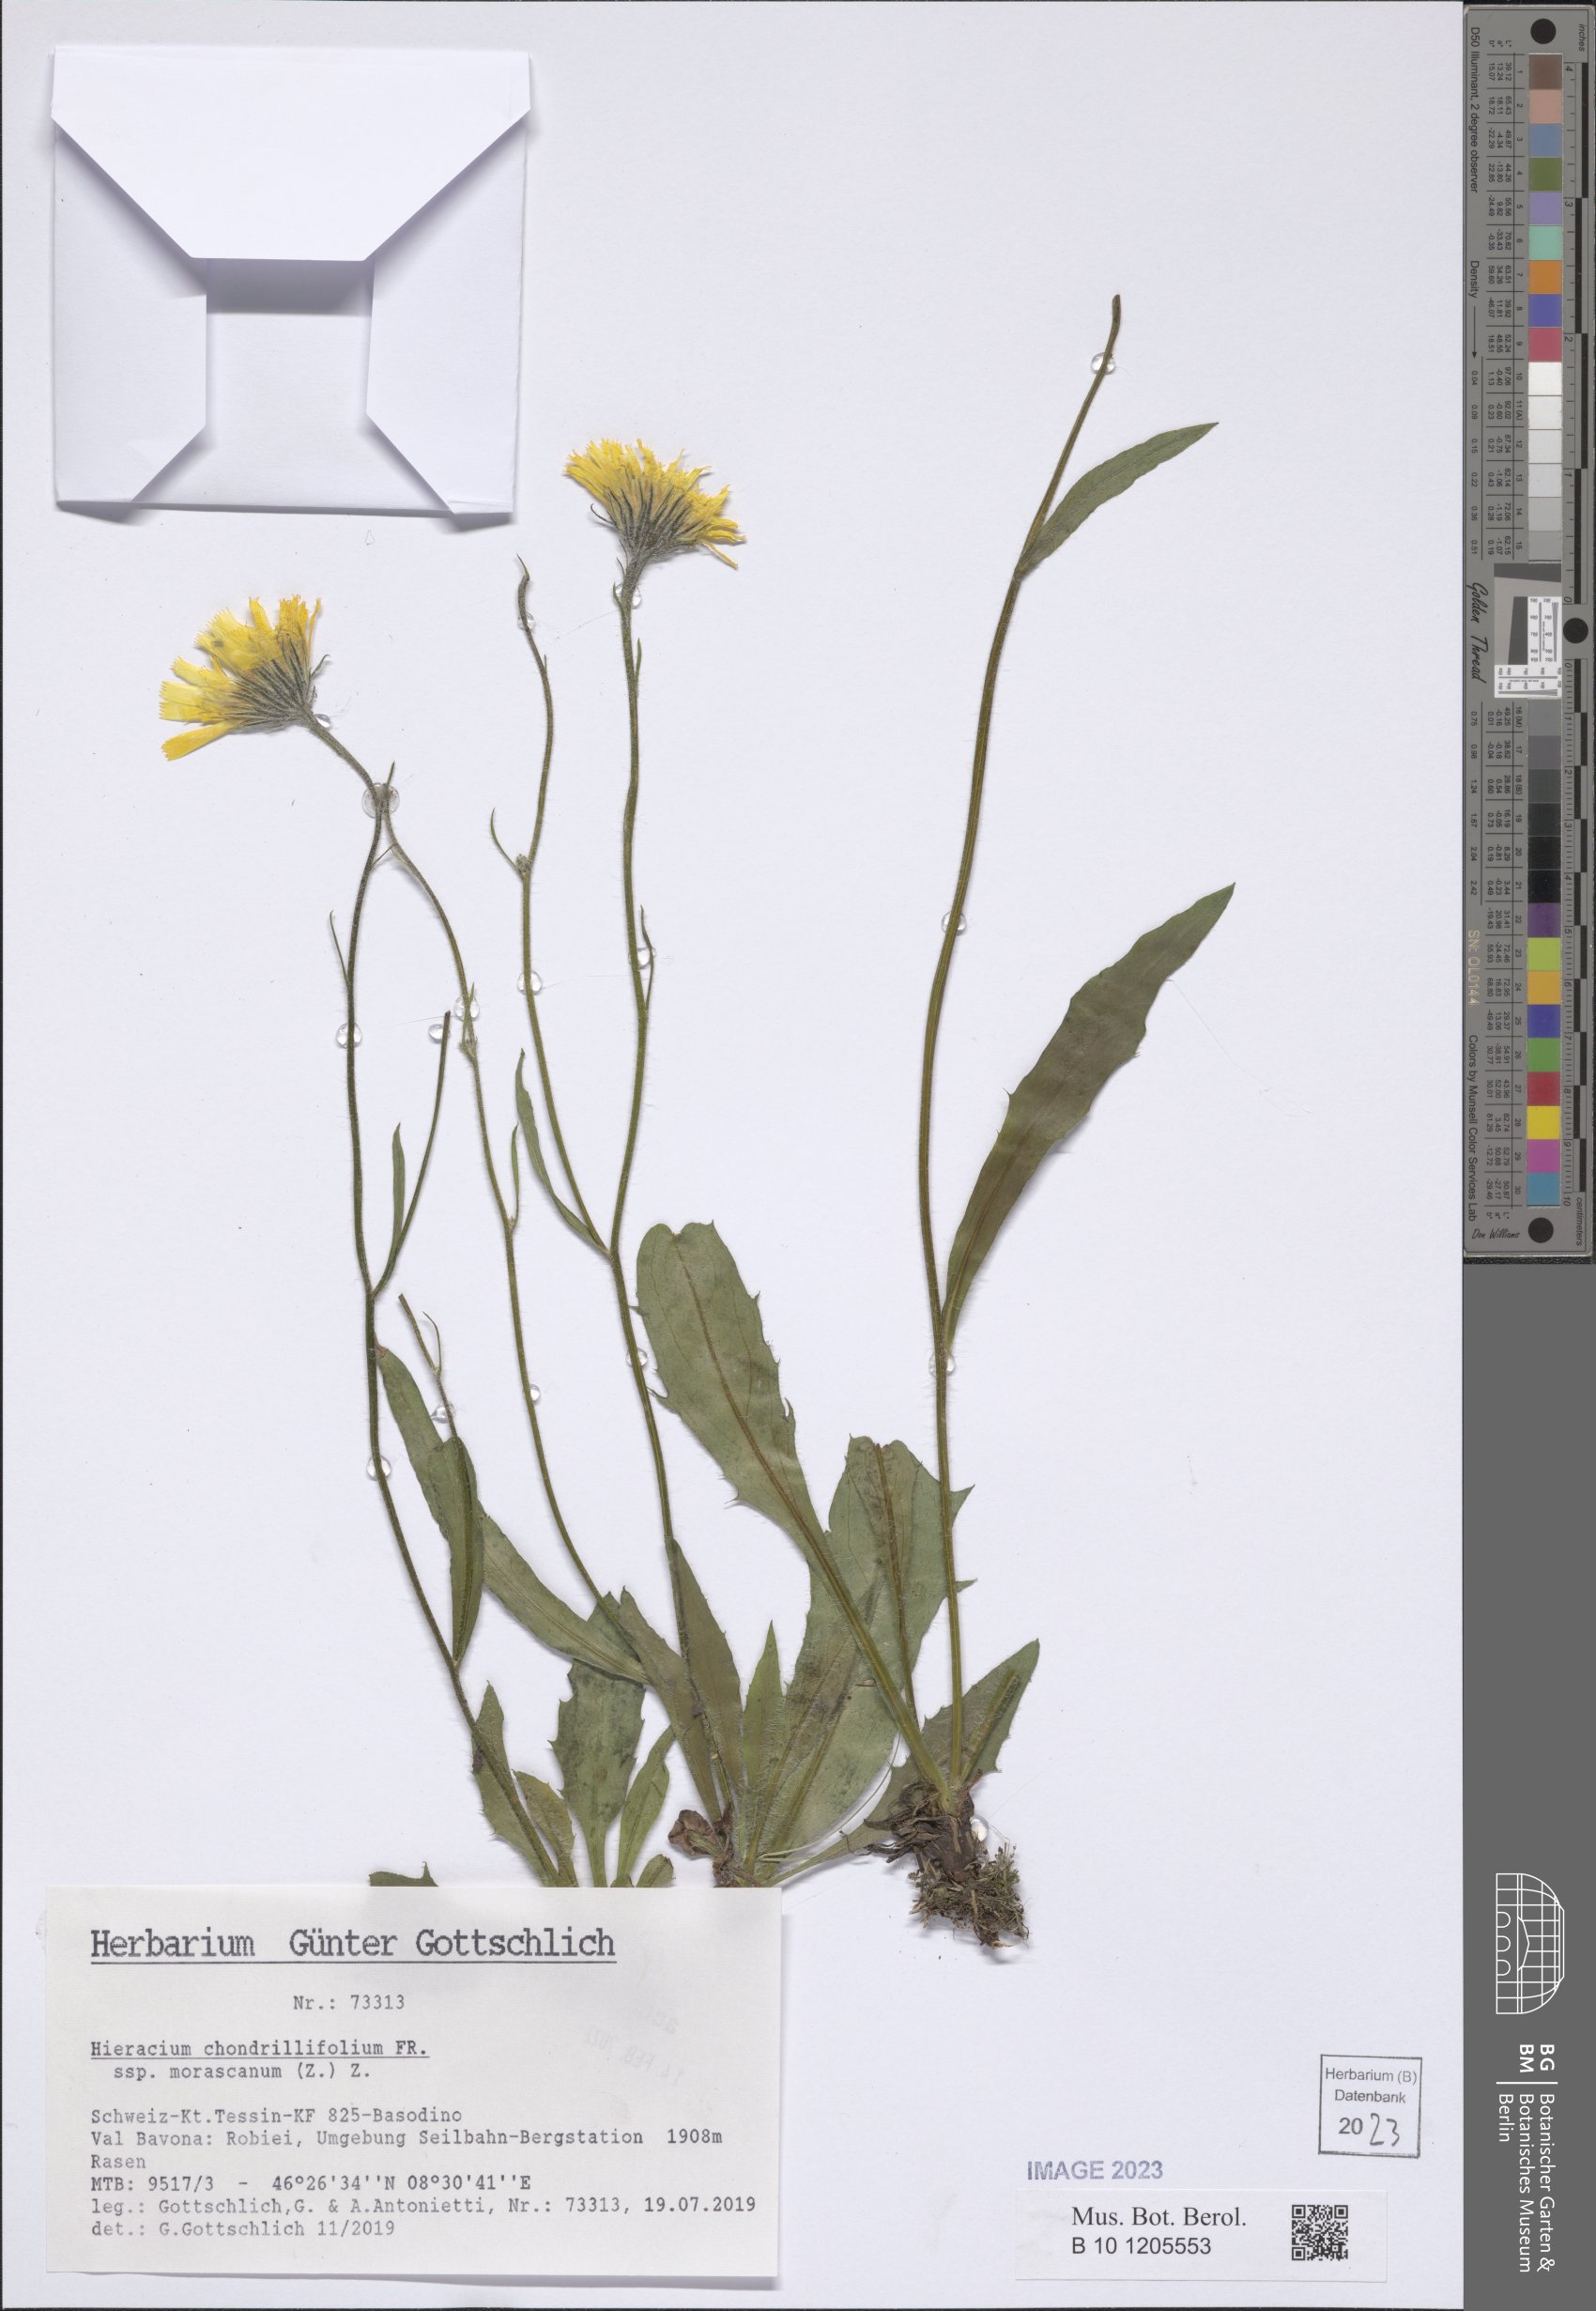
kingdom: Plantae
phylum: Tracheophyta
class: Magnoliopsida
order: Asterales
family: Asteraceae
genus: Hieracium
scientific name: Hieracium chondrillifolium
